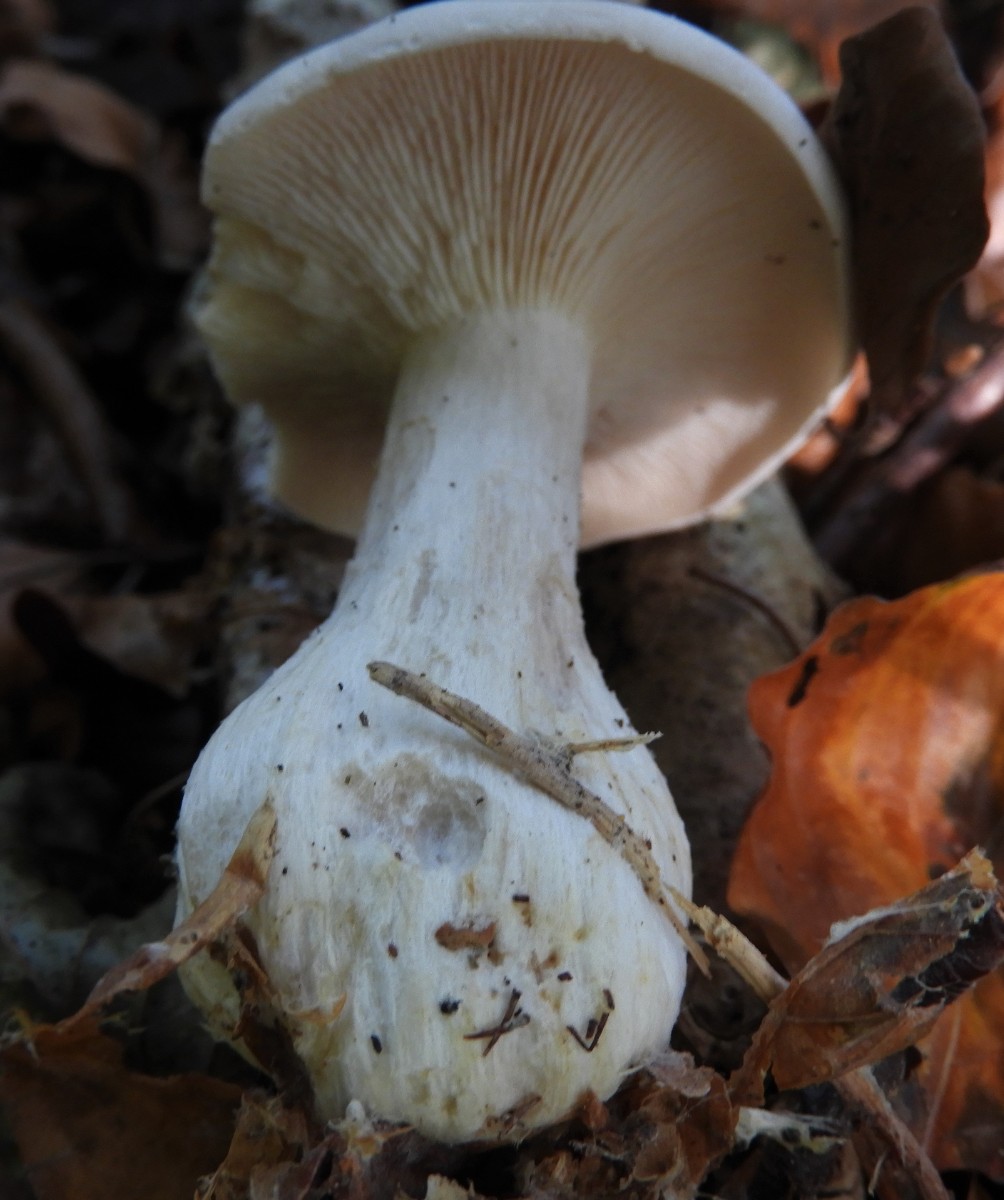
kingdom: Fungi
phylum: Basidiomycota
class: Agaricomycetes
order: Agaricales
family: Hygrophoraceae
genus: Ampulloclitocybe
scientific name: Ampulloclitocybe clavipes
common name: køllefod
